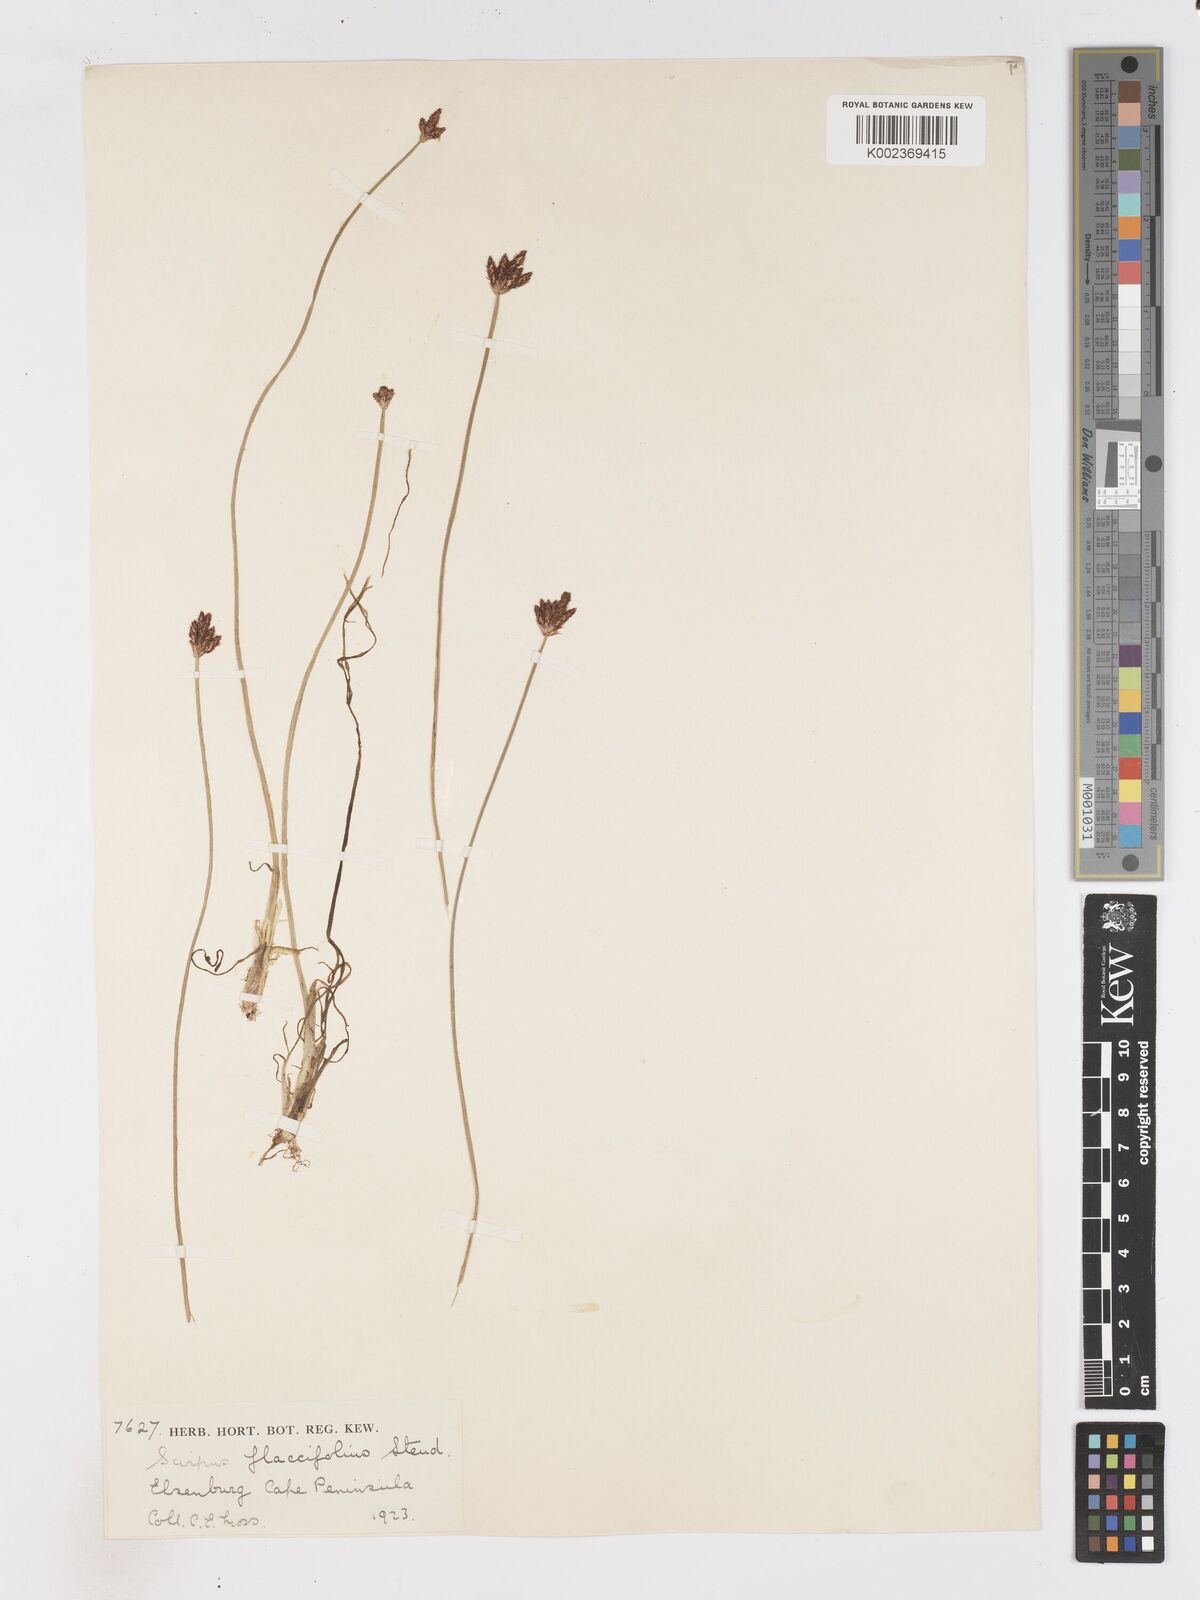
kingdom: Plantae
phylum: Tracheophyta
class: Liliopsida
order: Poales
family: Cyperaceae
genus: Isolepis
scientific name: Isolepis digitata
